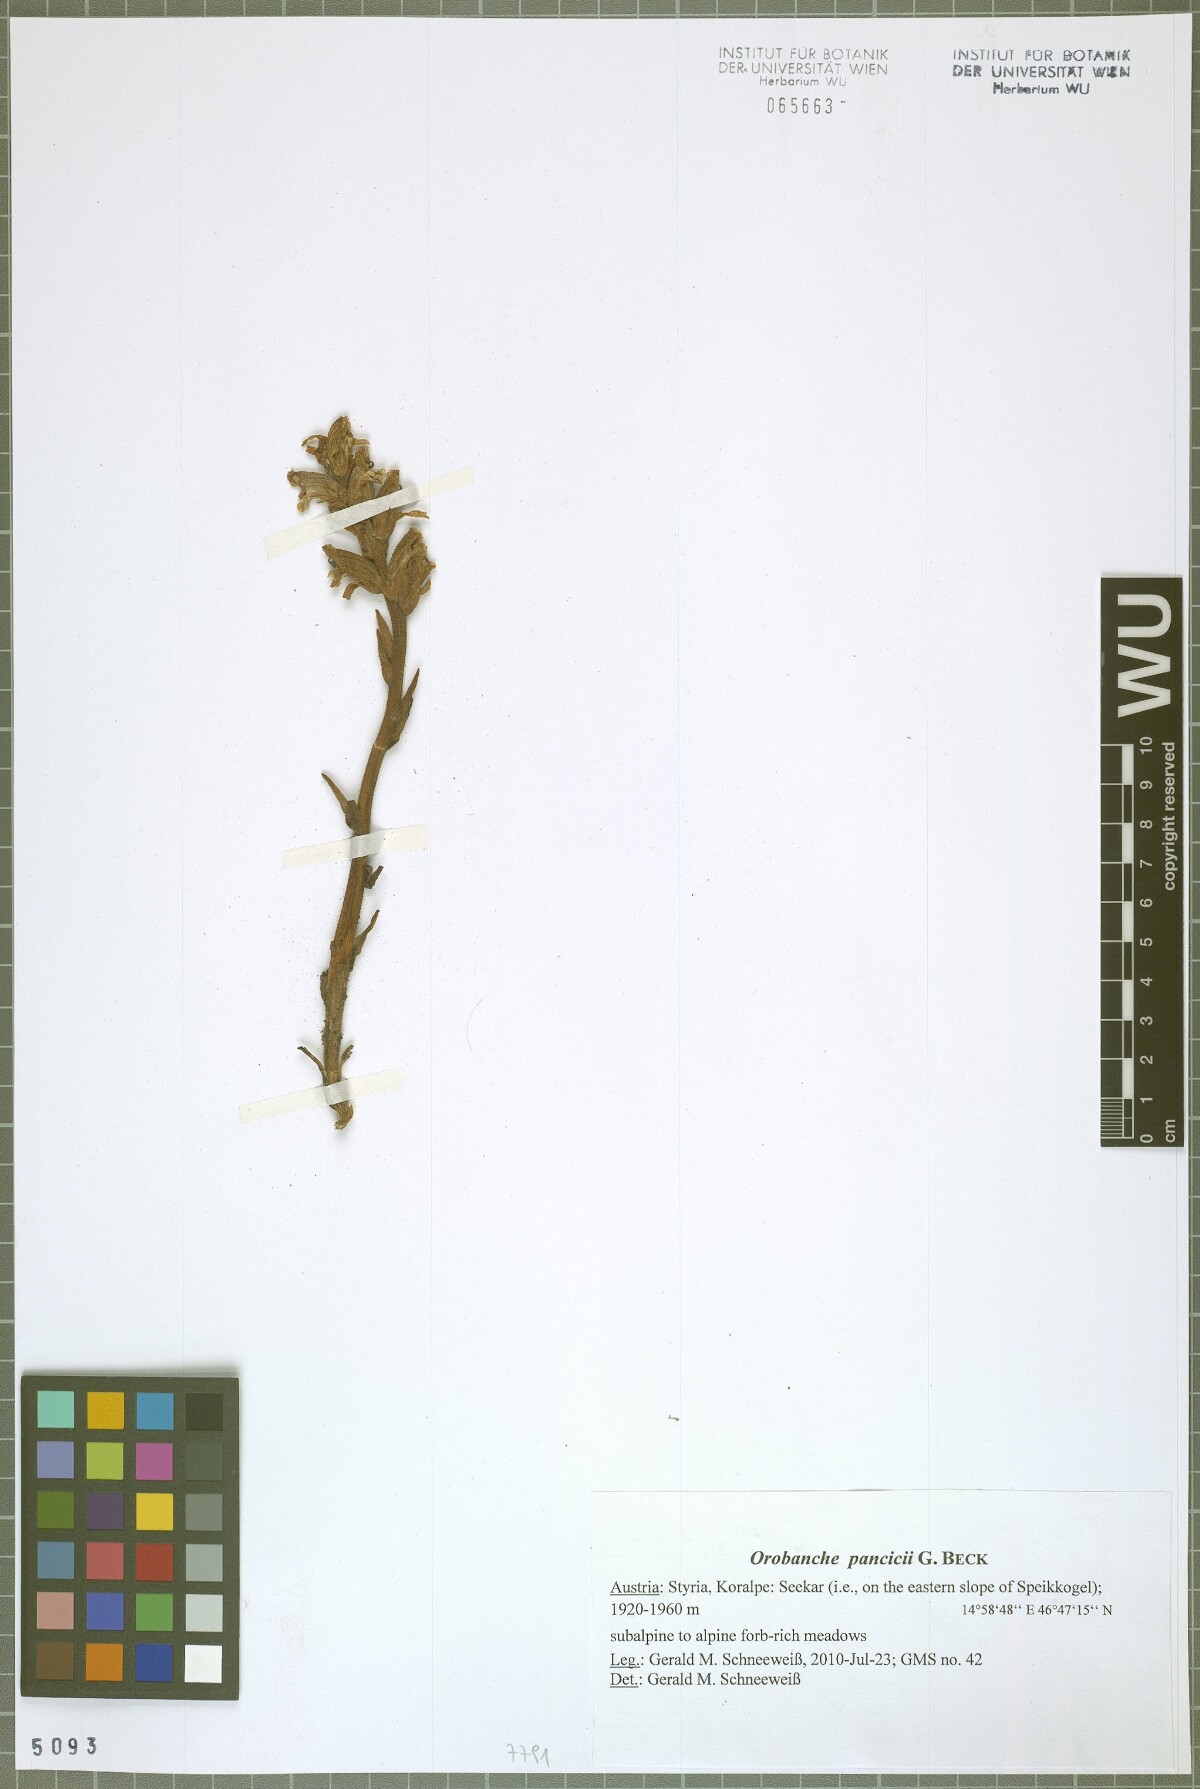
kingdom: Plantae
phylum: Tracheophyta
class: Magnoliopsida
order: Lamiales
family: Orobanchaceae
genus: Orobanche
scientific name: Orobanche pancicii
